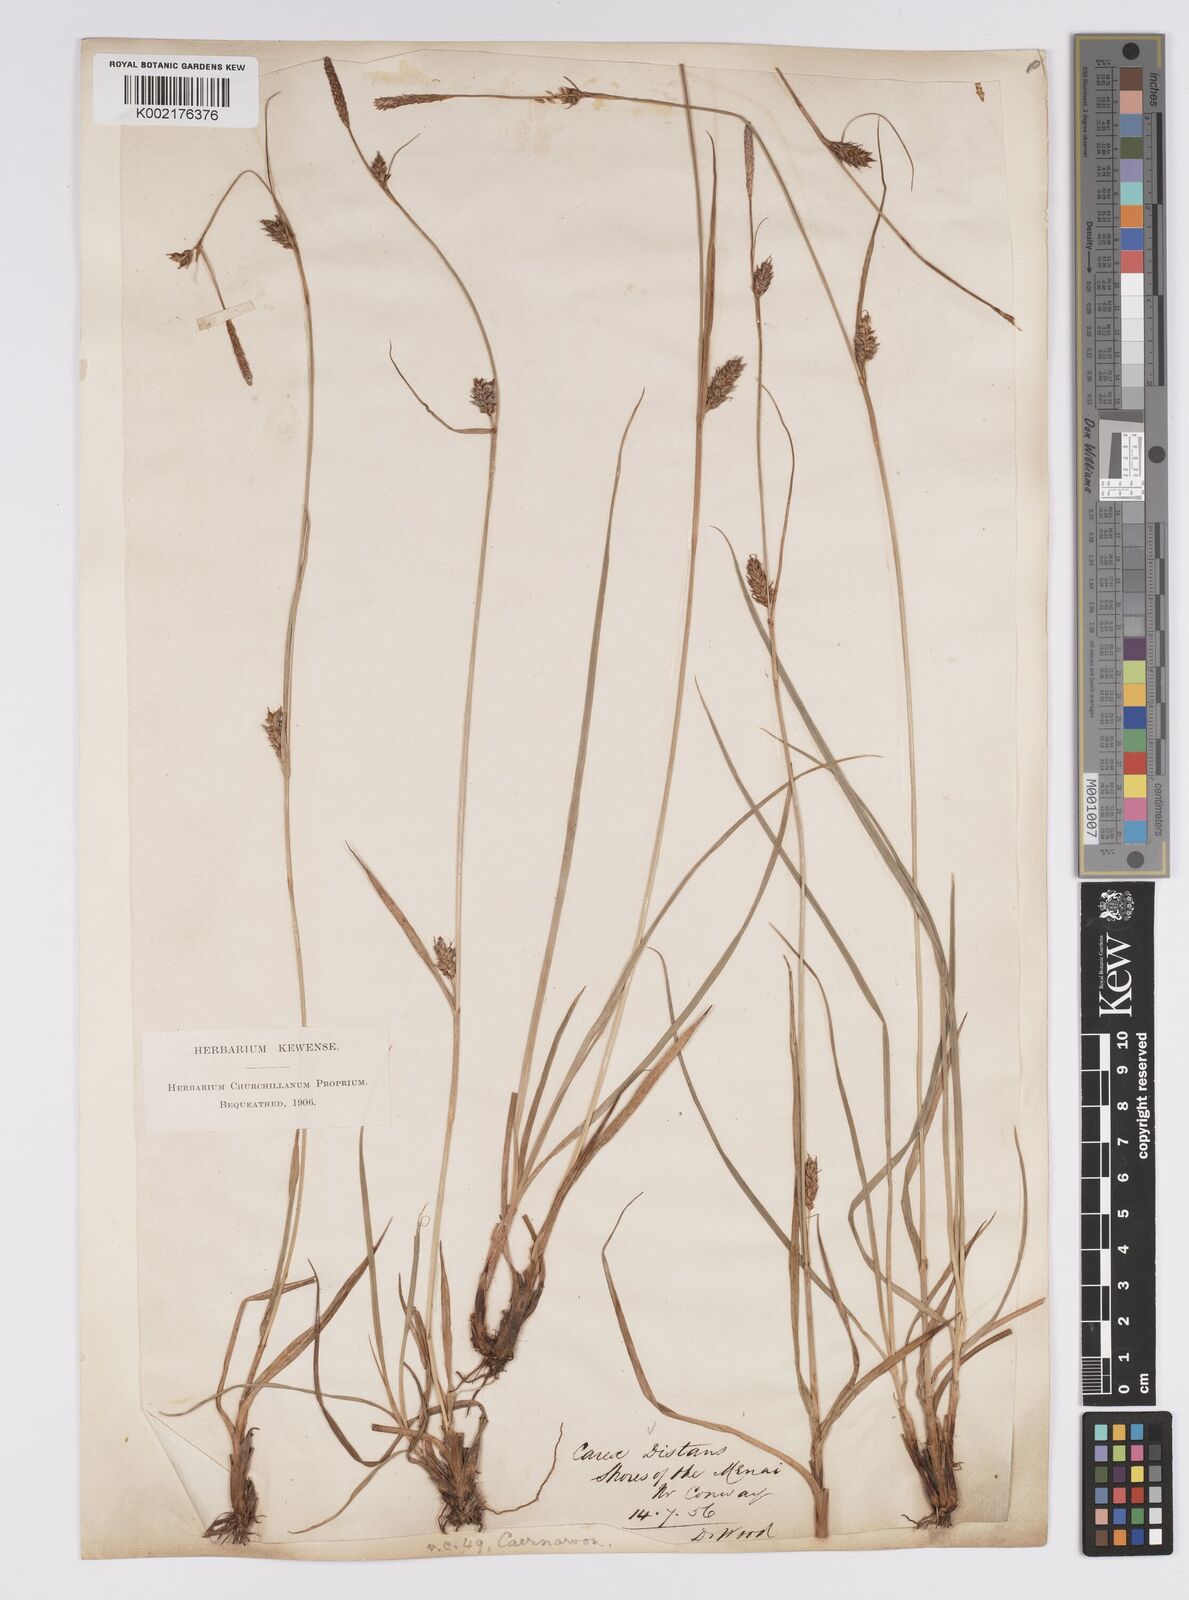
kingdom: Plantae
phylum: Tracheophyta
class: Liliopsida
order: Poales
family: Cyperaceae
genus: Carex
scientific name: Carex distans
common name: Distant sedge
